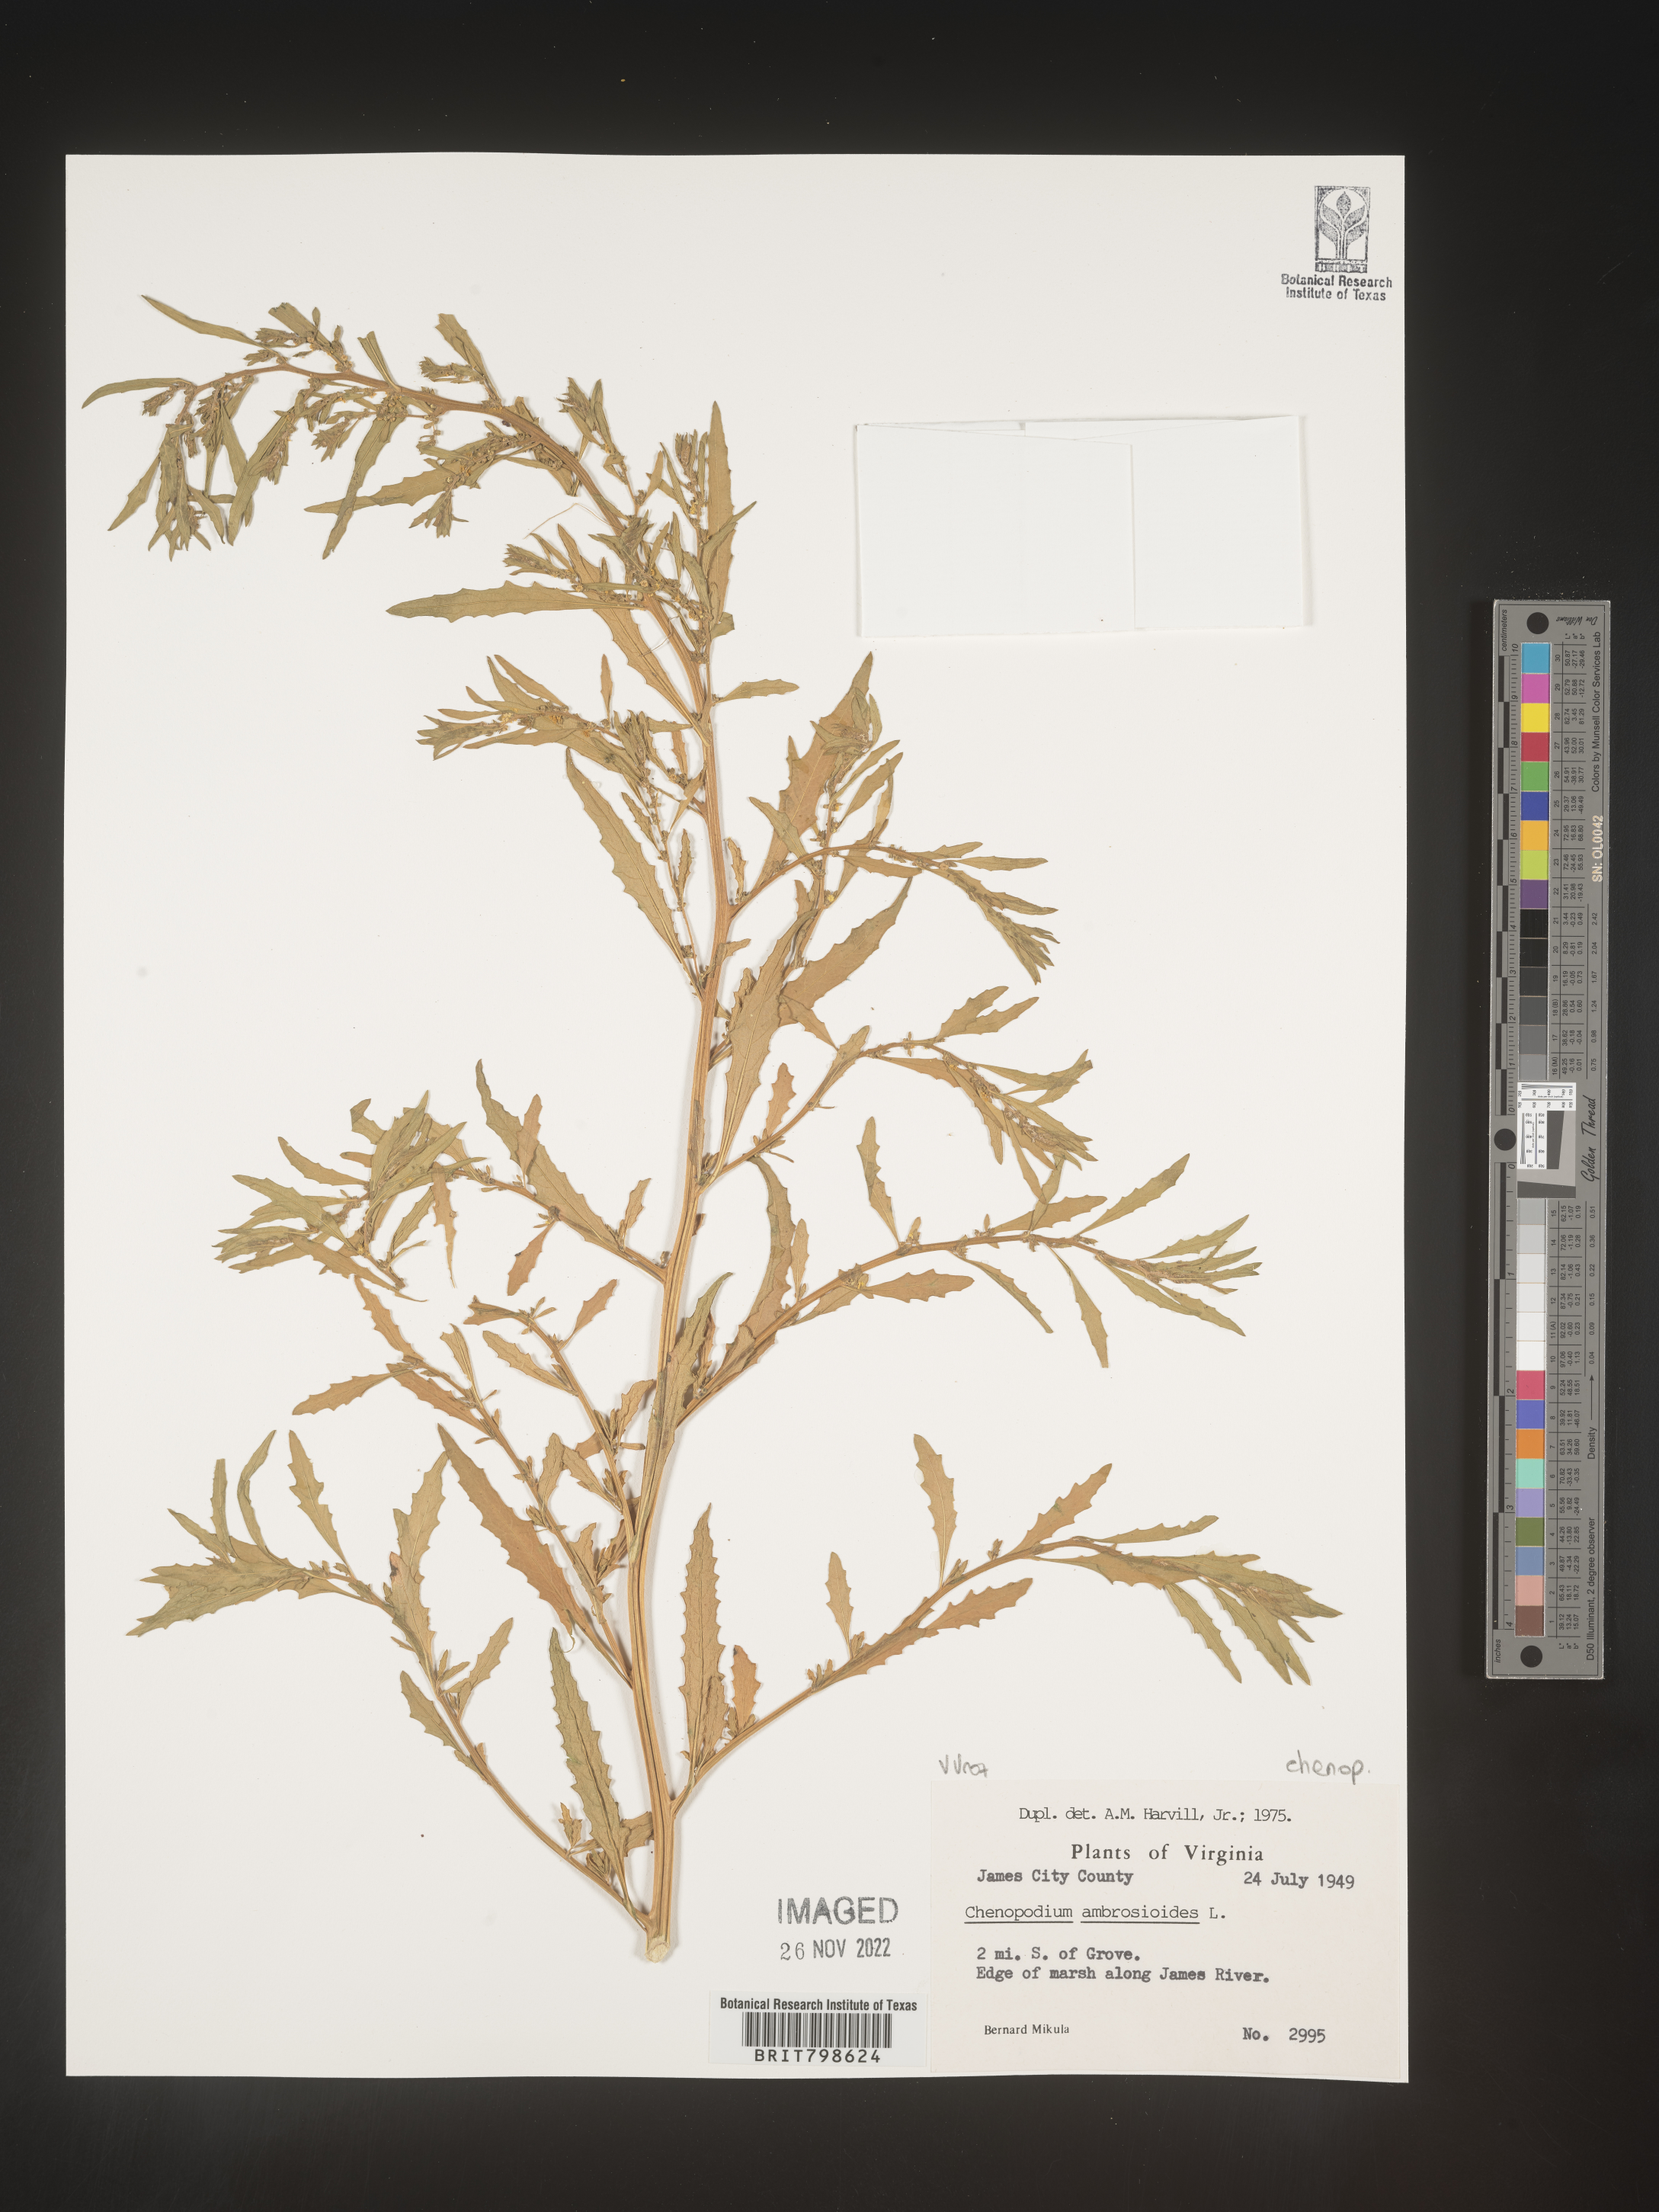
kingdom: Plantae
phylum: Tracheophyta
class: Magnoliopsida
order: Caryophyllales
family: Amaranthaceae
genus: Dysphania
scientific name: Dysphania ambrosioides
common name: Wormseed
